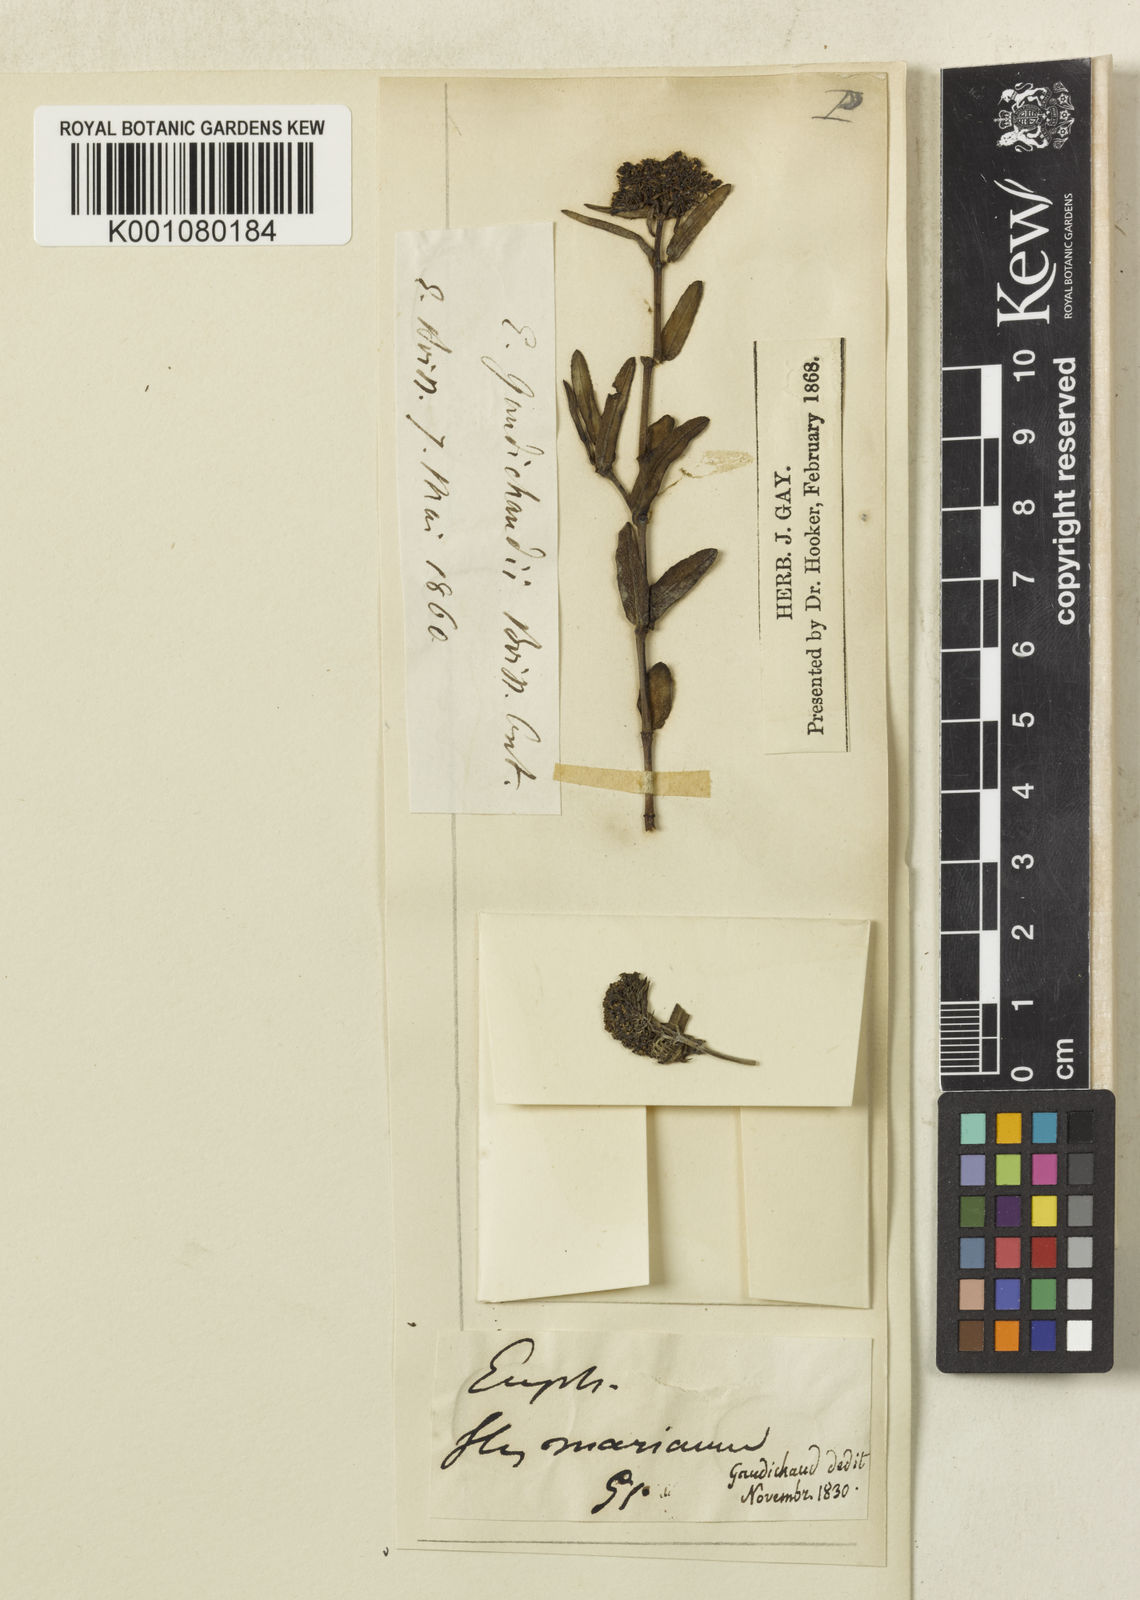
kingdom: Plantae
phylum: Tracheophyta
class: Magnoliopsida
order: Malpighiales
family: Euphorbiaceae
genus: Euphorbia
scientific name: Euphorbia gaudichaudii
